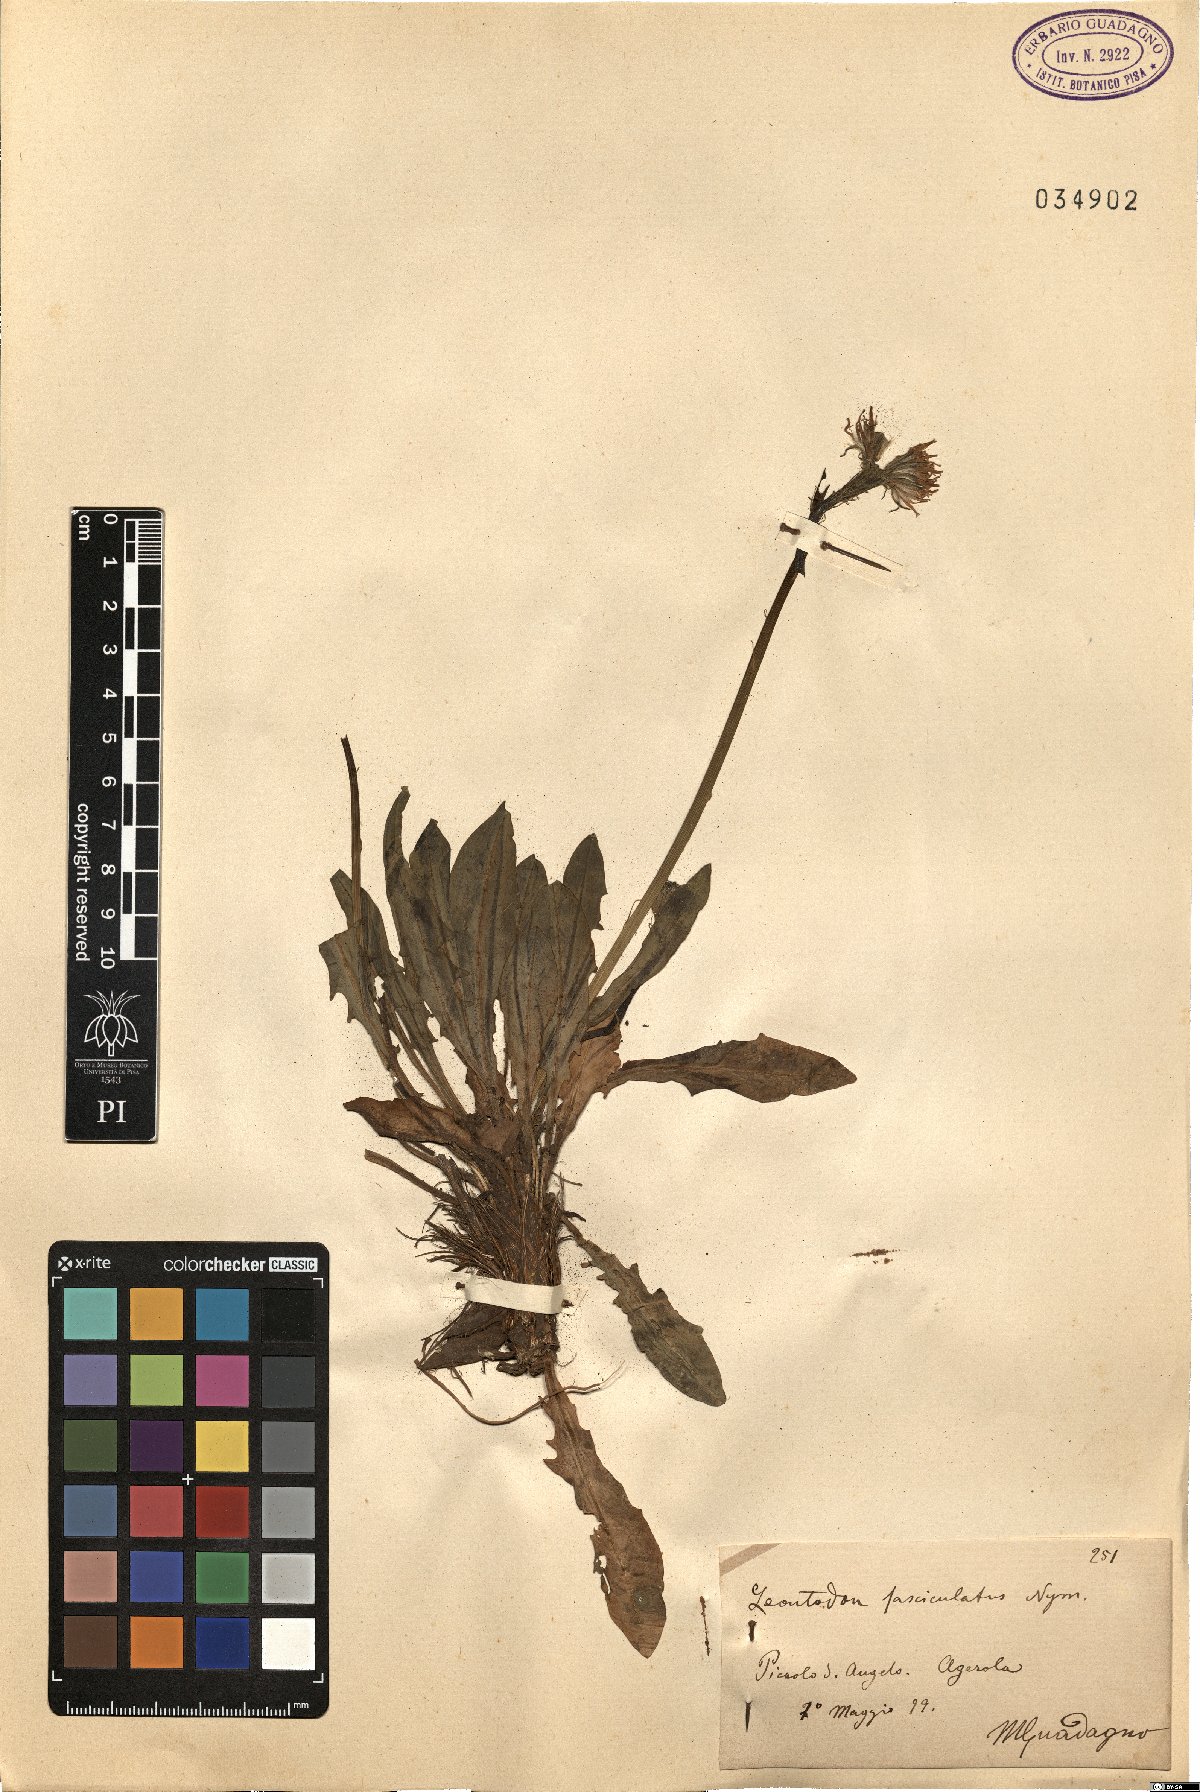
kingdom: Plantae
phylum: Tracheophyta
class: Magnoliopsida
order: Asterales
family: Asteraceae
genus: Scorzoneroides
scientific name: Scorzoneroides cichoriacea
